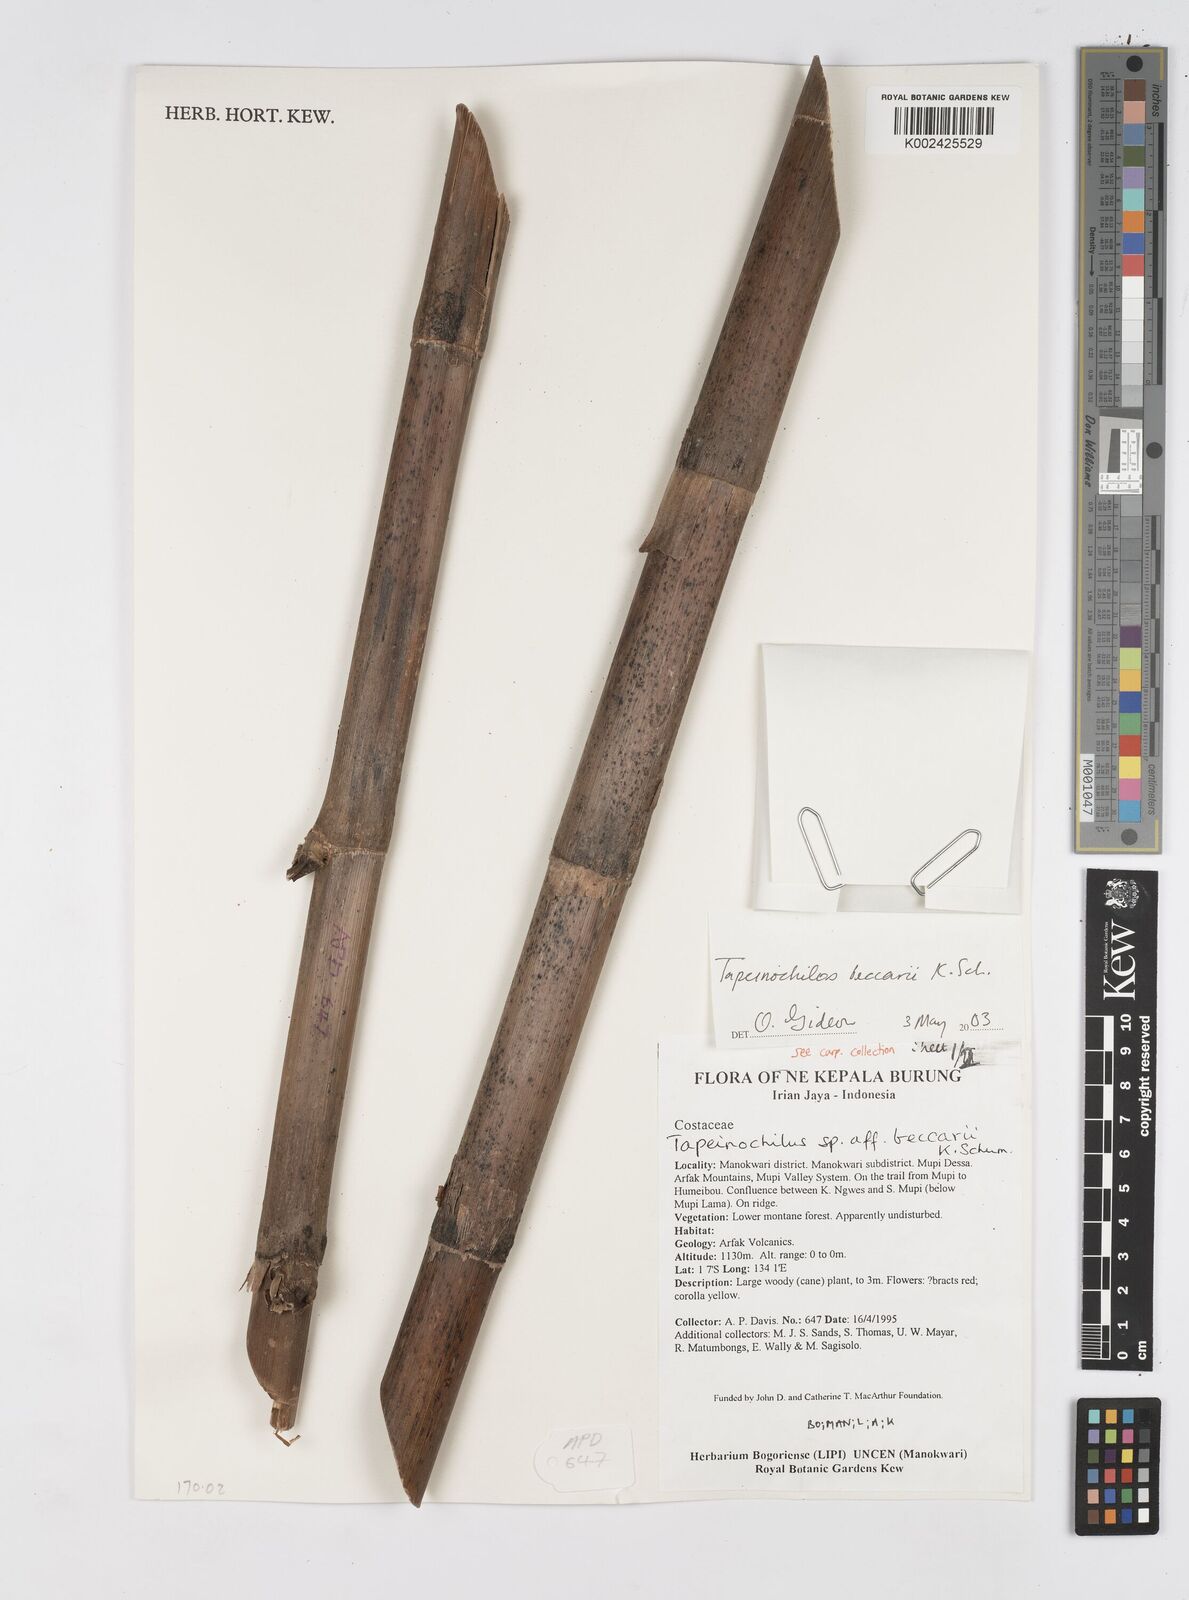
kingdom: Plantae
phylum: Tracheophyta
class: Liliopsida
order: Zingiberales
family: Costaceae
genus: Tapeinochilos
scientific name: Tapeinochilos beccarii
